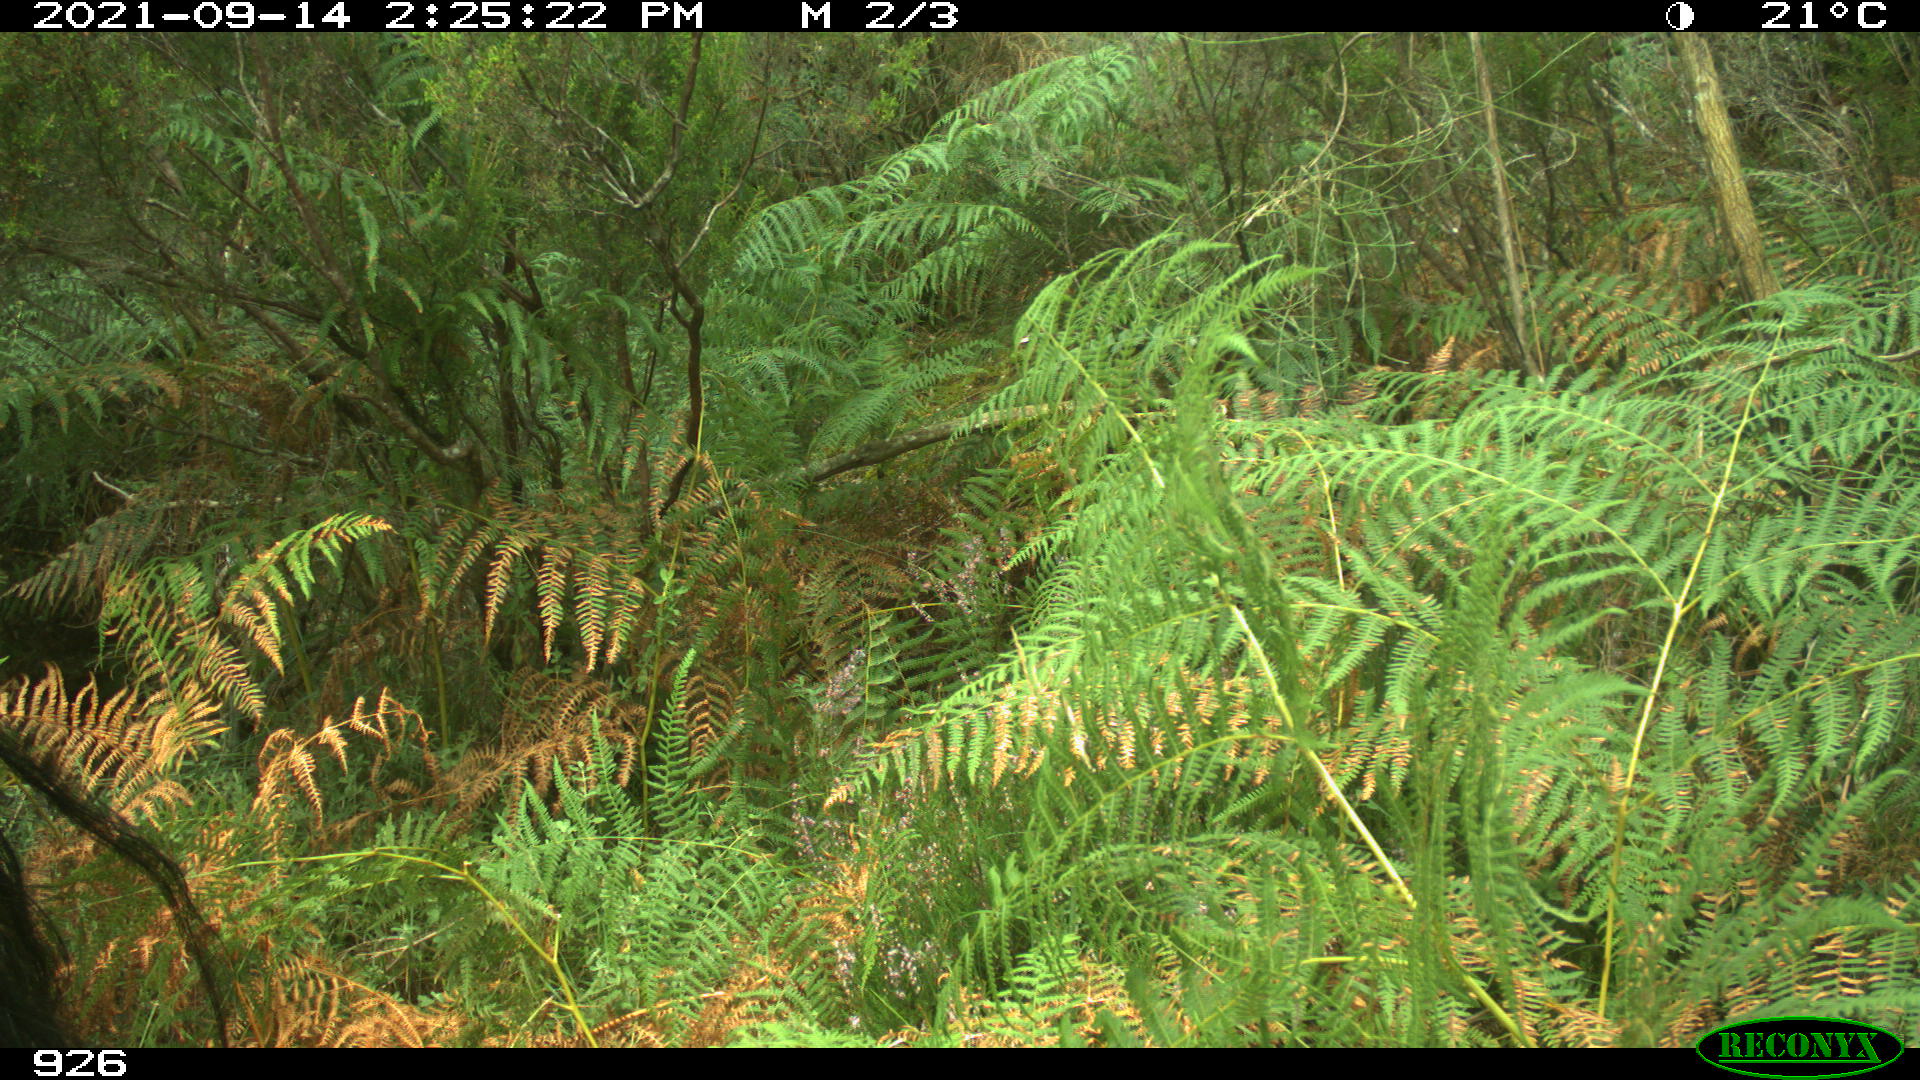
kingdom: Animalia
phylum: Chordata
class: Mammalia
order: Perissodactyla
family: Equidae
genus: Equus
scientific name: Equus caballus
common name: Horse
